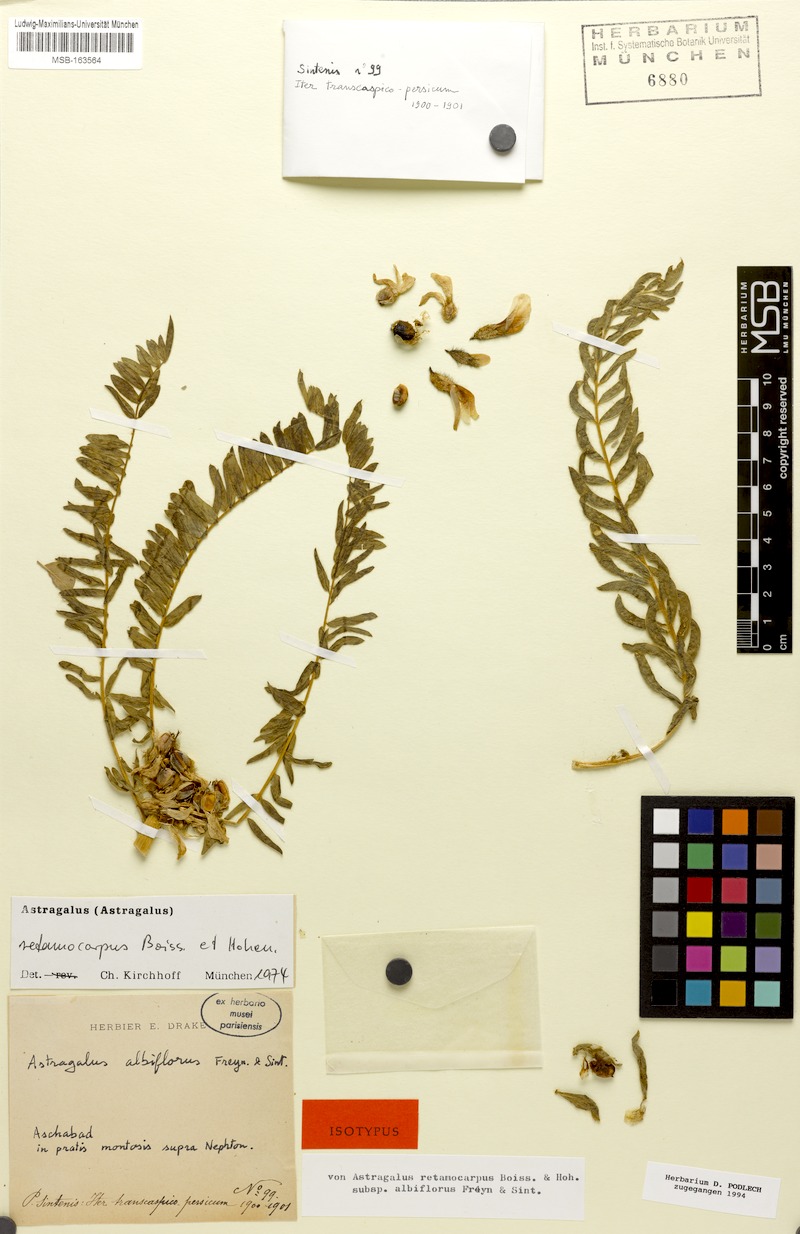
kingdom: Plantae
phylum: Tracheophyta
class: Magnoliopsida
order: Fabales
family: Fabaceae
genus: Astragalus
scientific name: Astragalus retamocarpus
